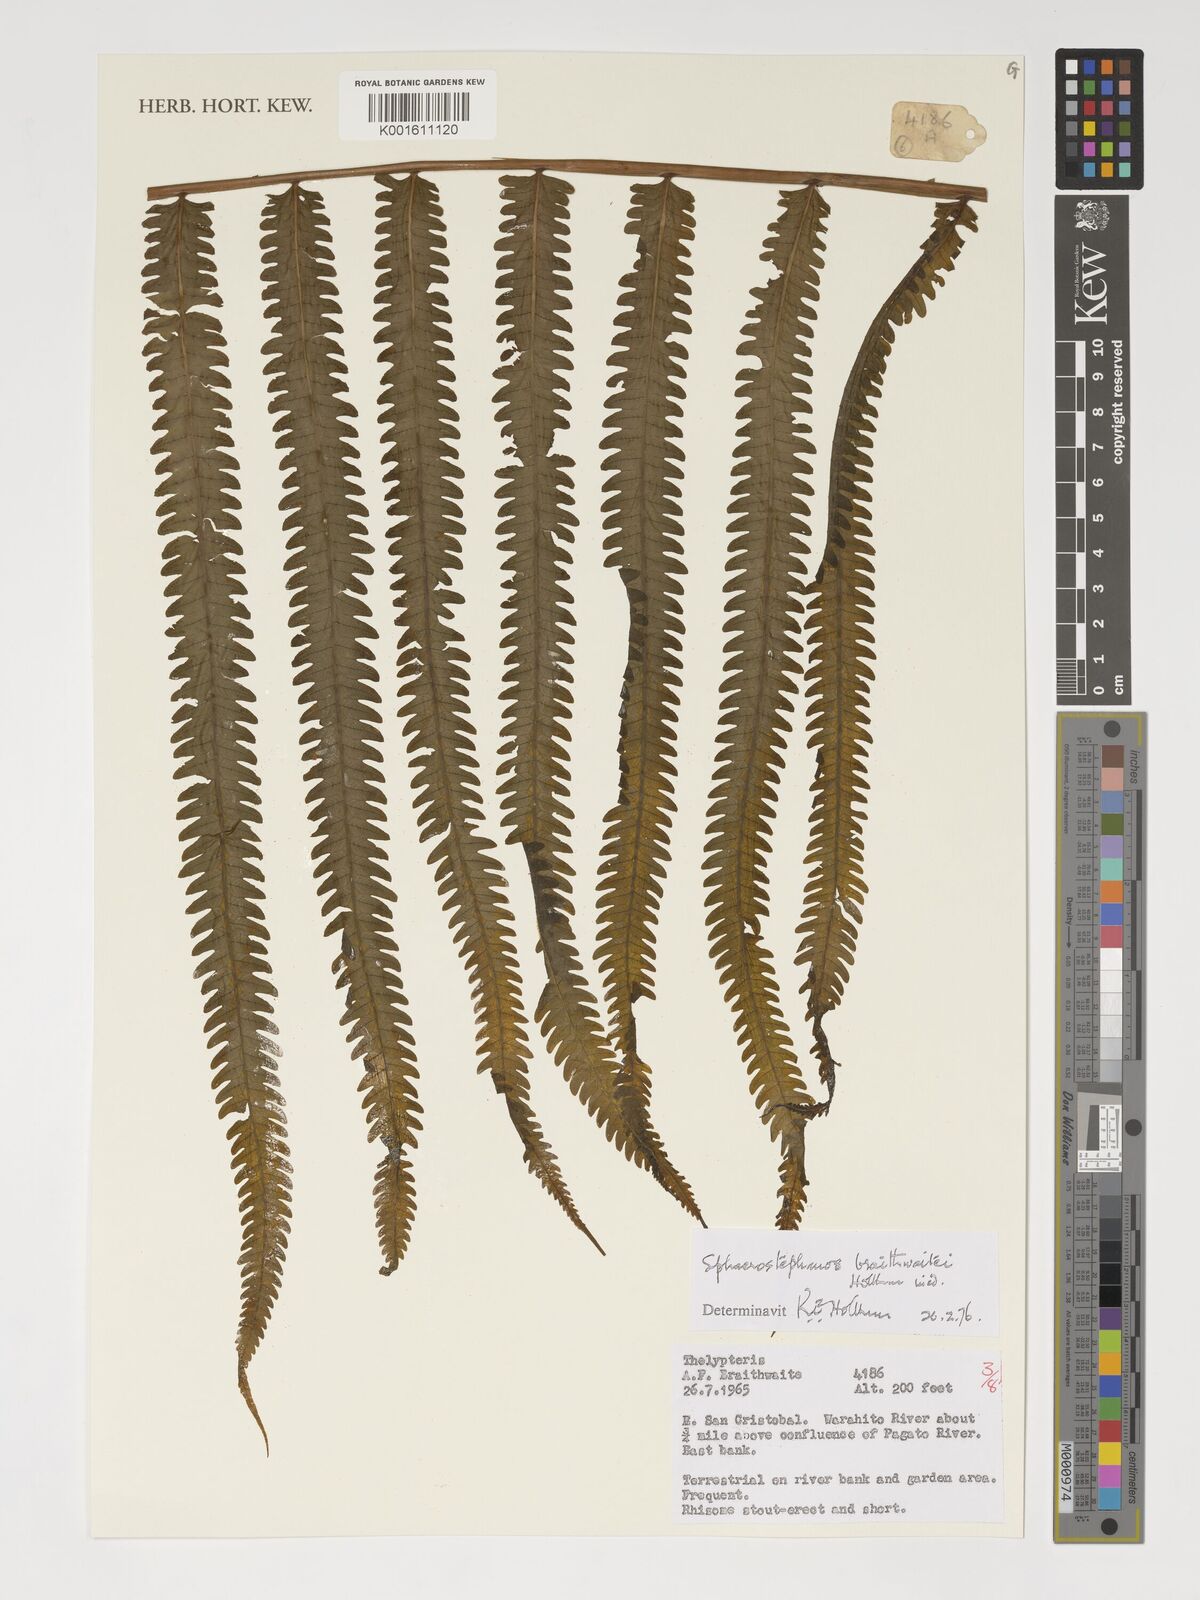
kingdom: Plantae
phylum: Tracheophyta
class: Polypodiopsida
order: Polypodiales
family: Thelypteridaceae
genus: Sphaerostephanos
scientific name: Sphaerostephanos braithwaitei
